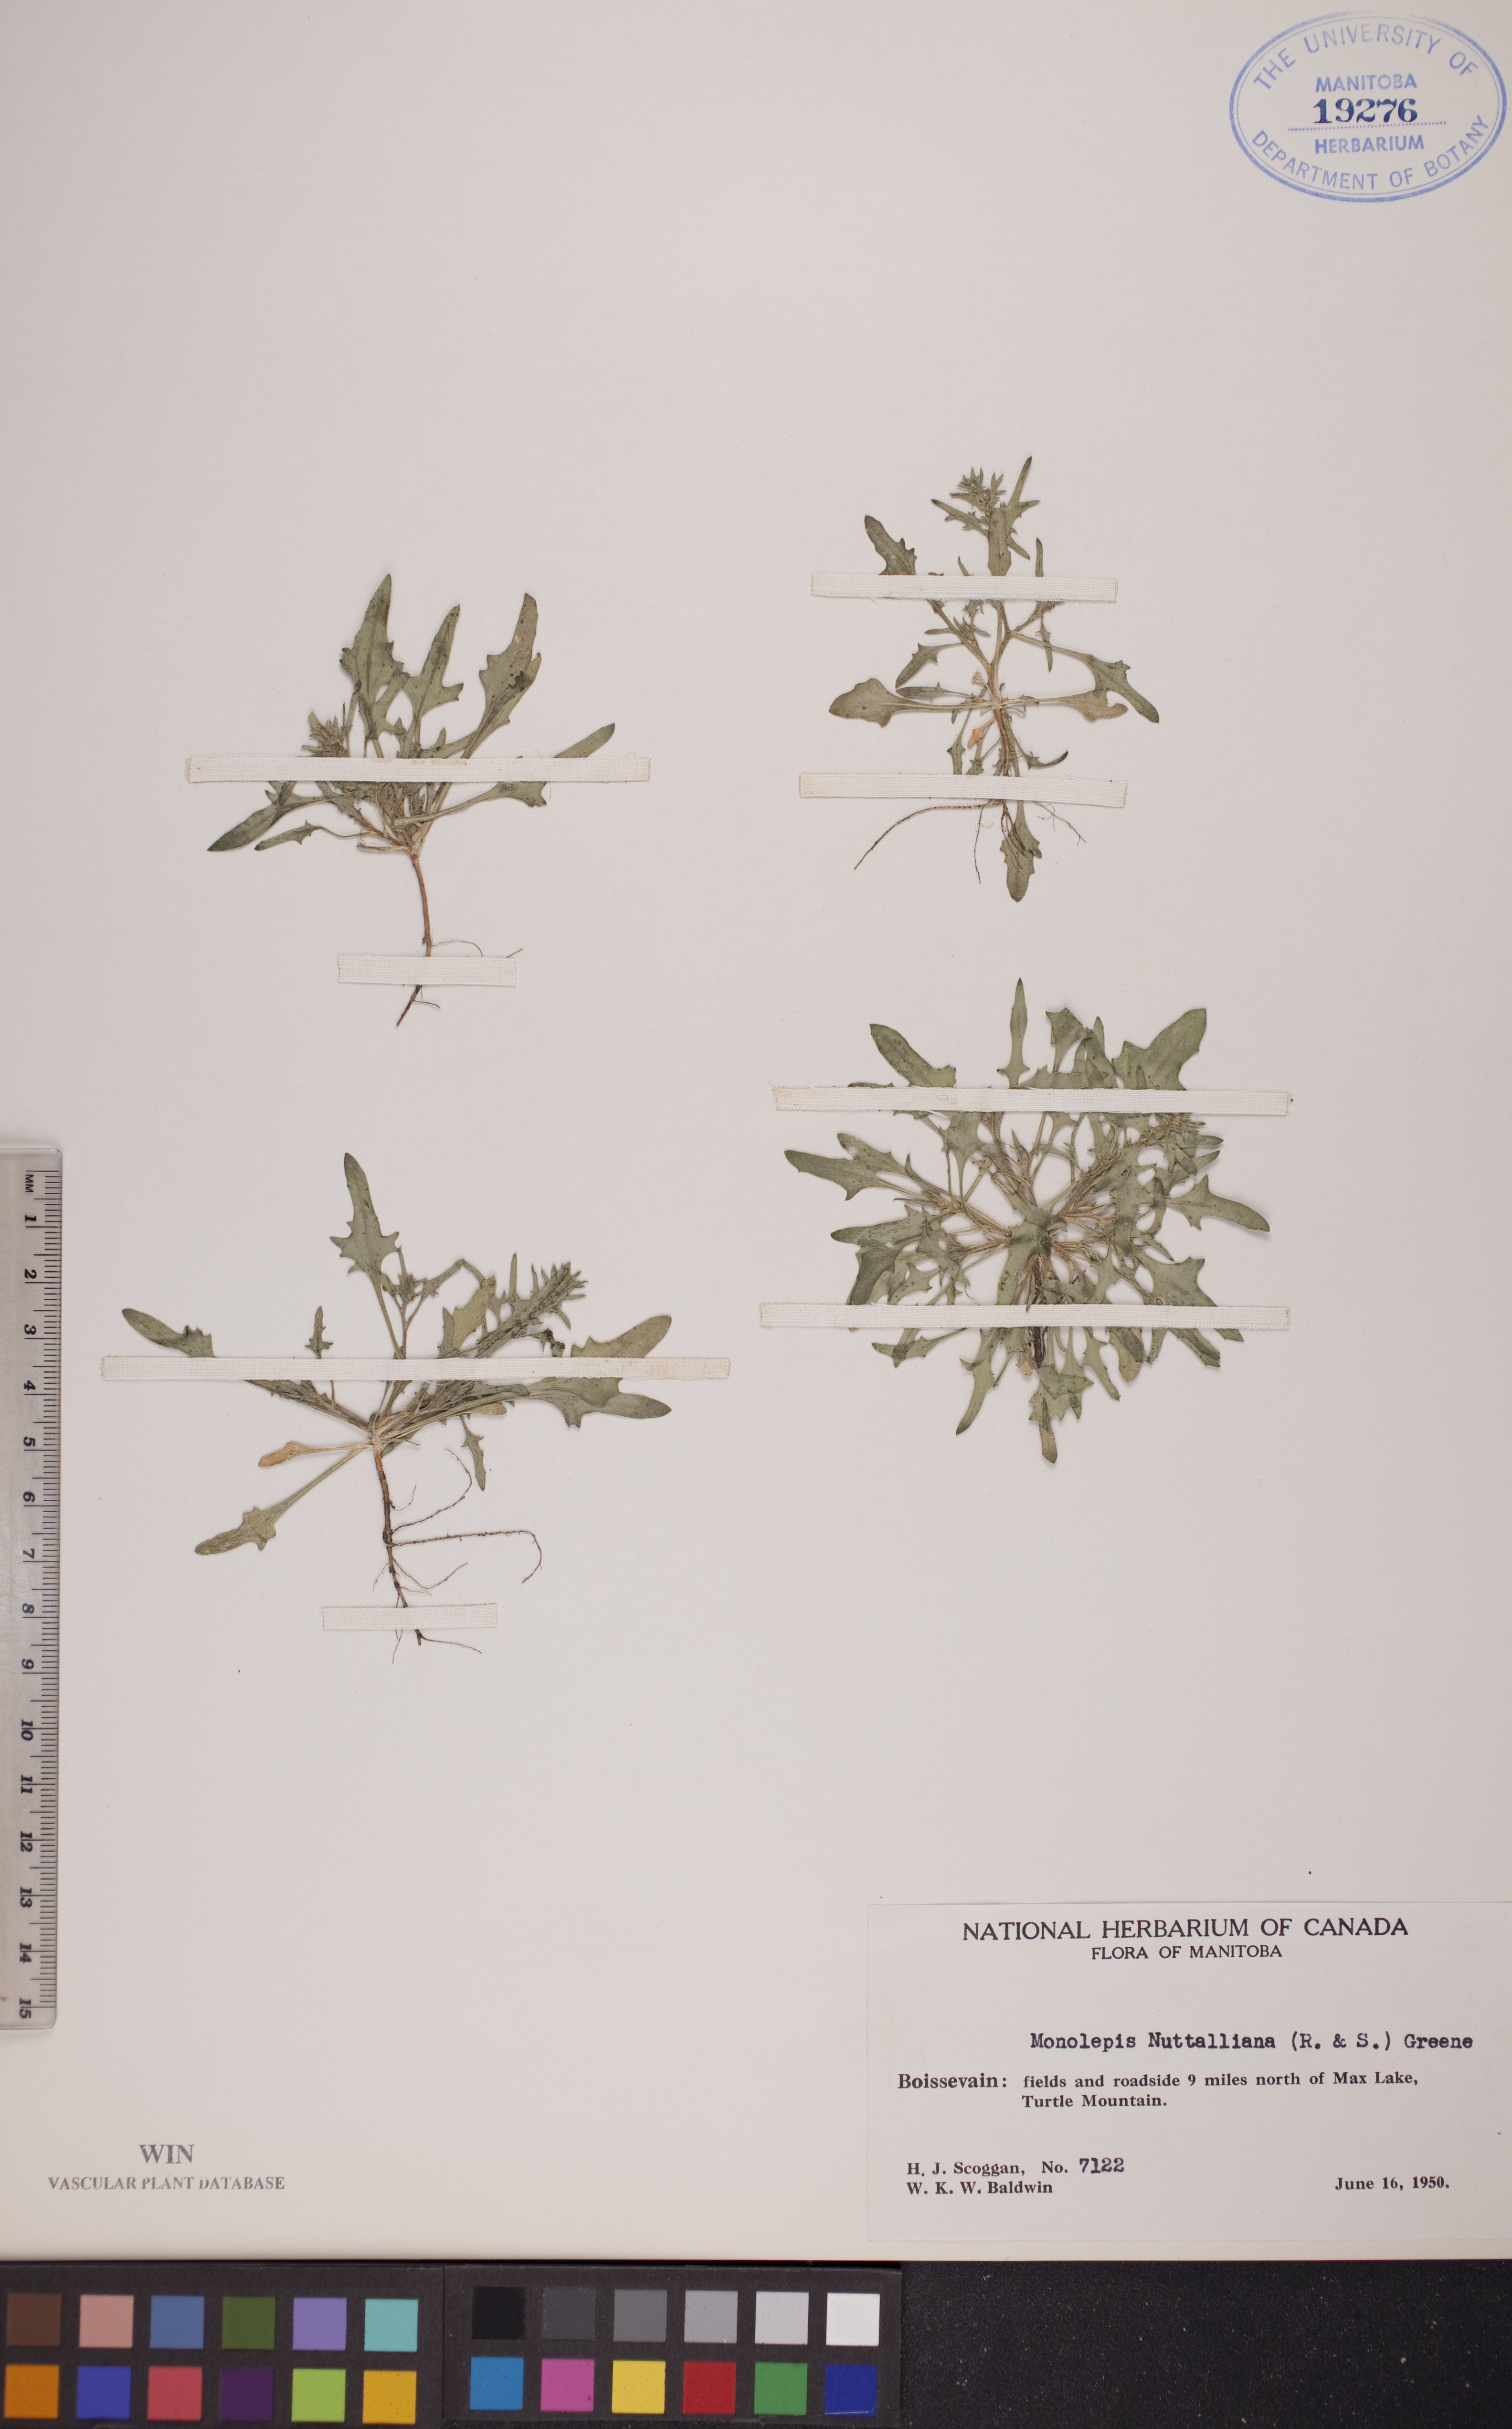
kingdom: Plantae
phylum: Tracheophyta
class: Magnoliopsida
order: Caryophyllales
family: Amaranthaceae
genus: Blitum
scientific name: Blitum nuttallianum
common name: Poverty-weed
